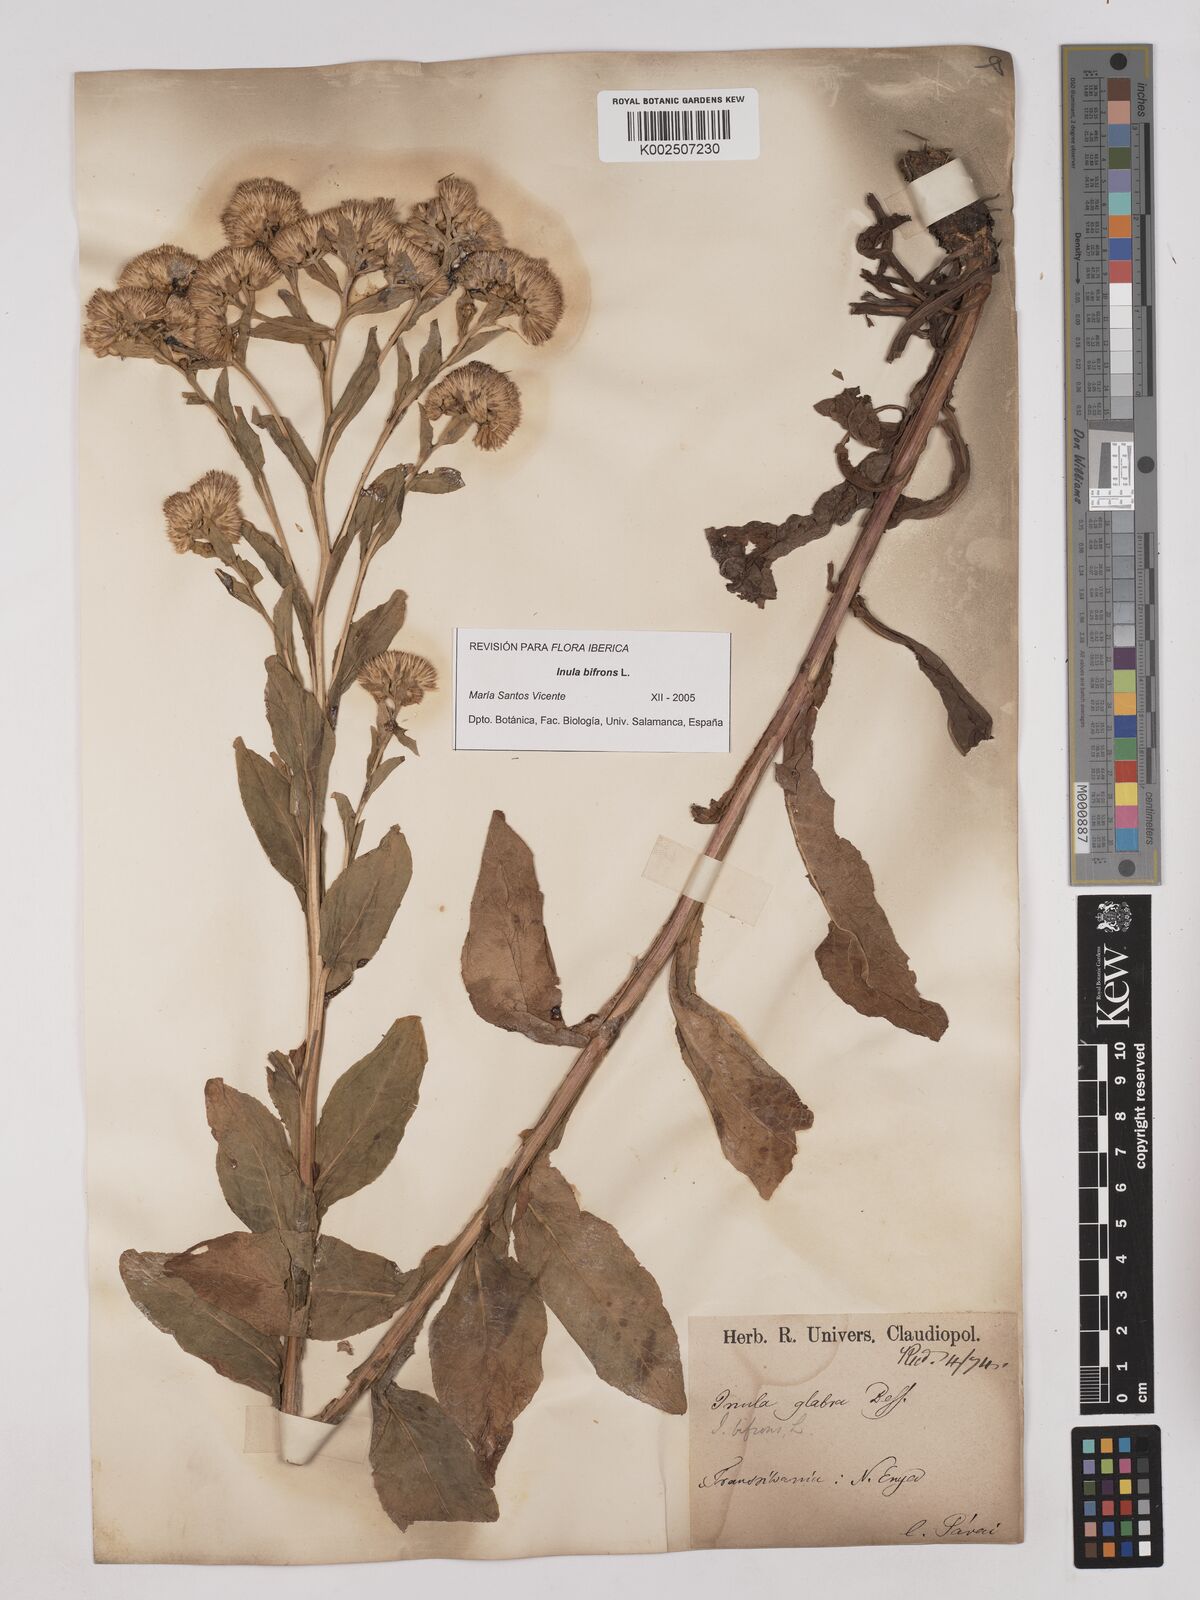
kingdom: Plantae
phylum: Tracheophyta
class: Magnoliopsida
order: Asterales
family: Asteraceae
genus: Pentanema
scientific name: Pentanema bifrons
